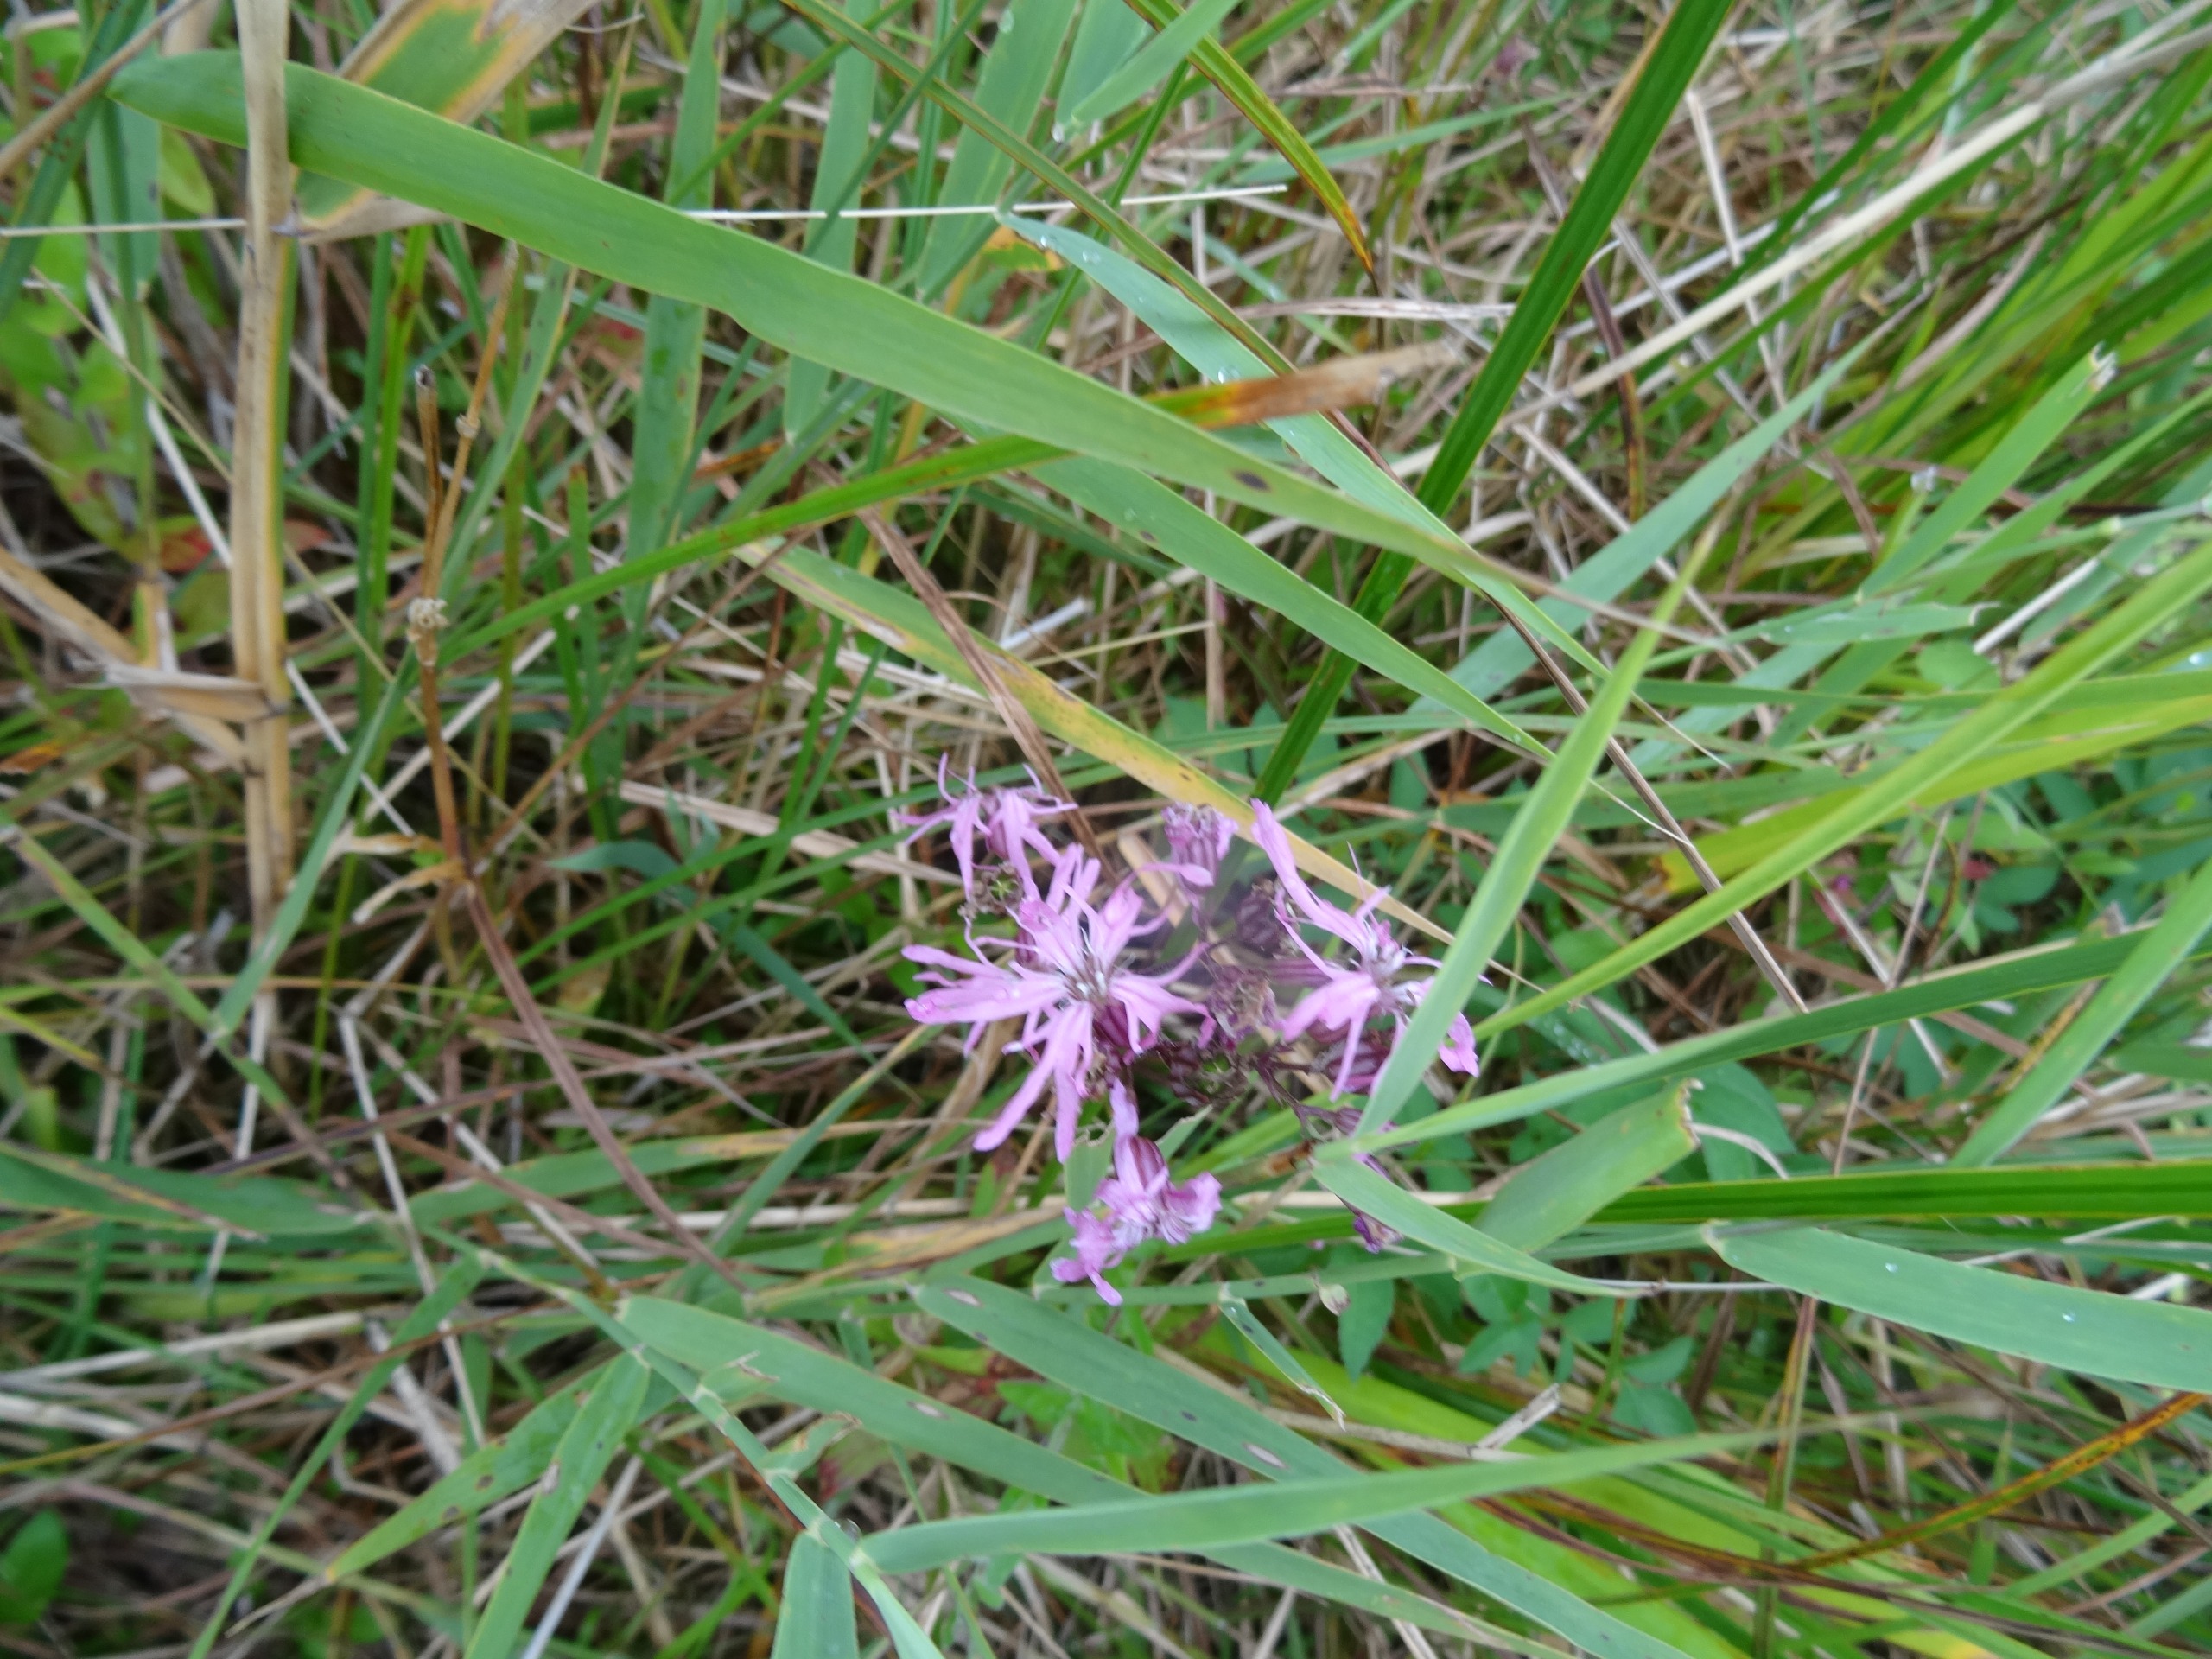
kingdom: Plantae
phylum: Tracheophyta
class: Magnoliopsida
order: Caryophyllales
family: Caryophyllaceae
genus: Silene
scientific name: Silene flos-cuculi
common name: Trævlekrone
